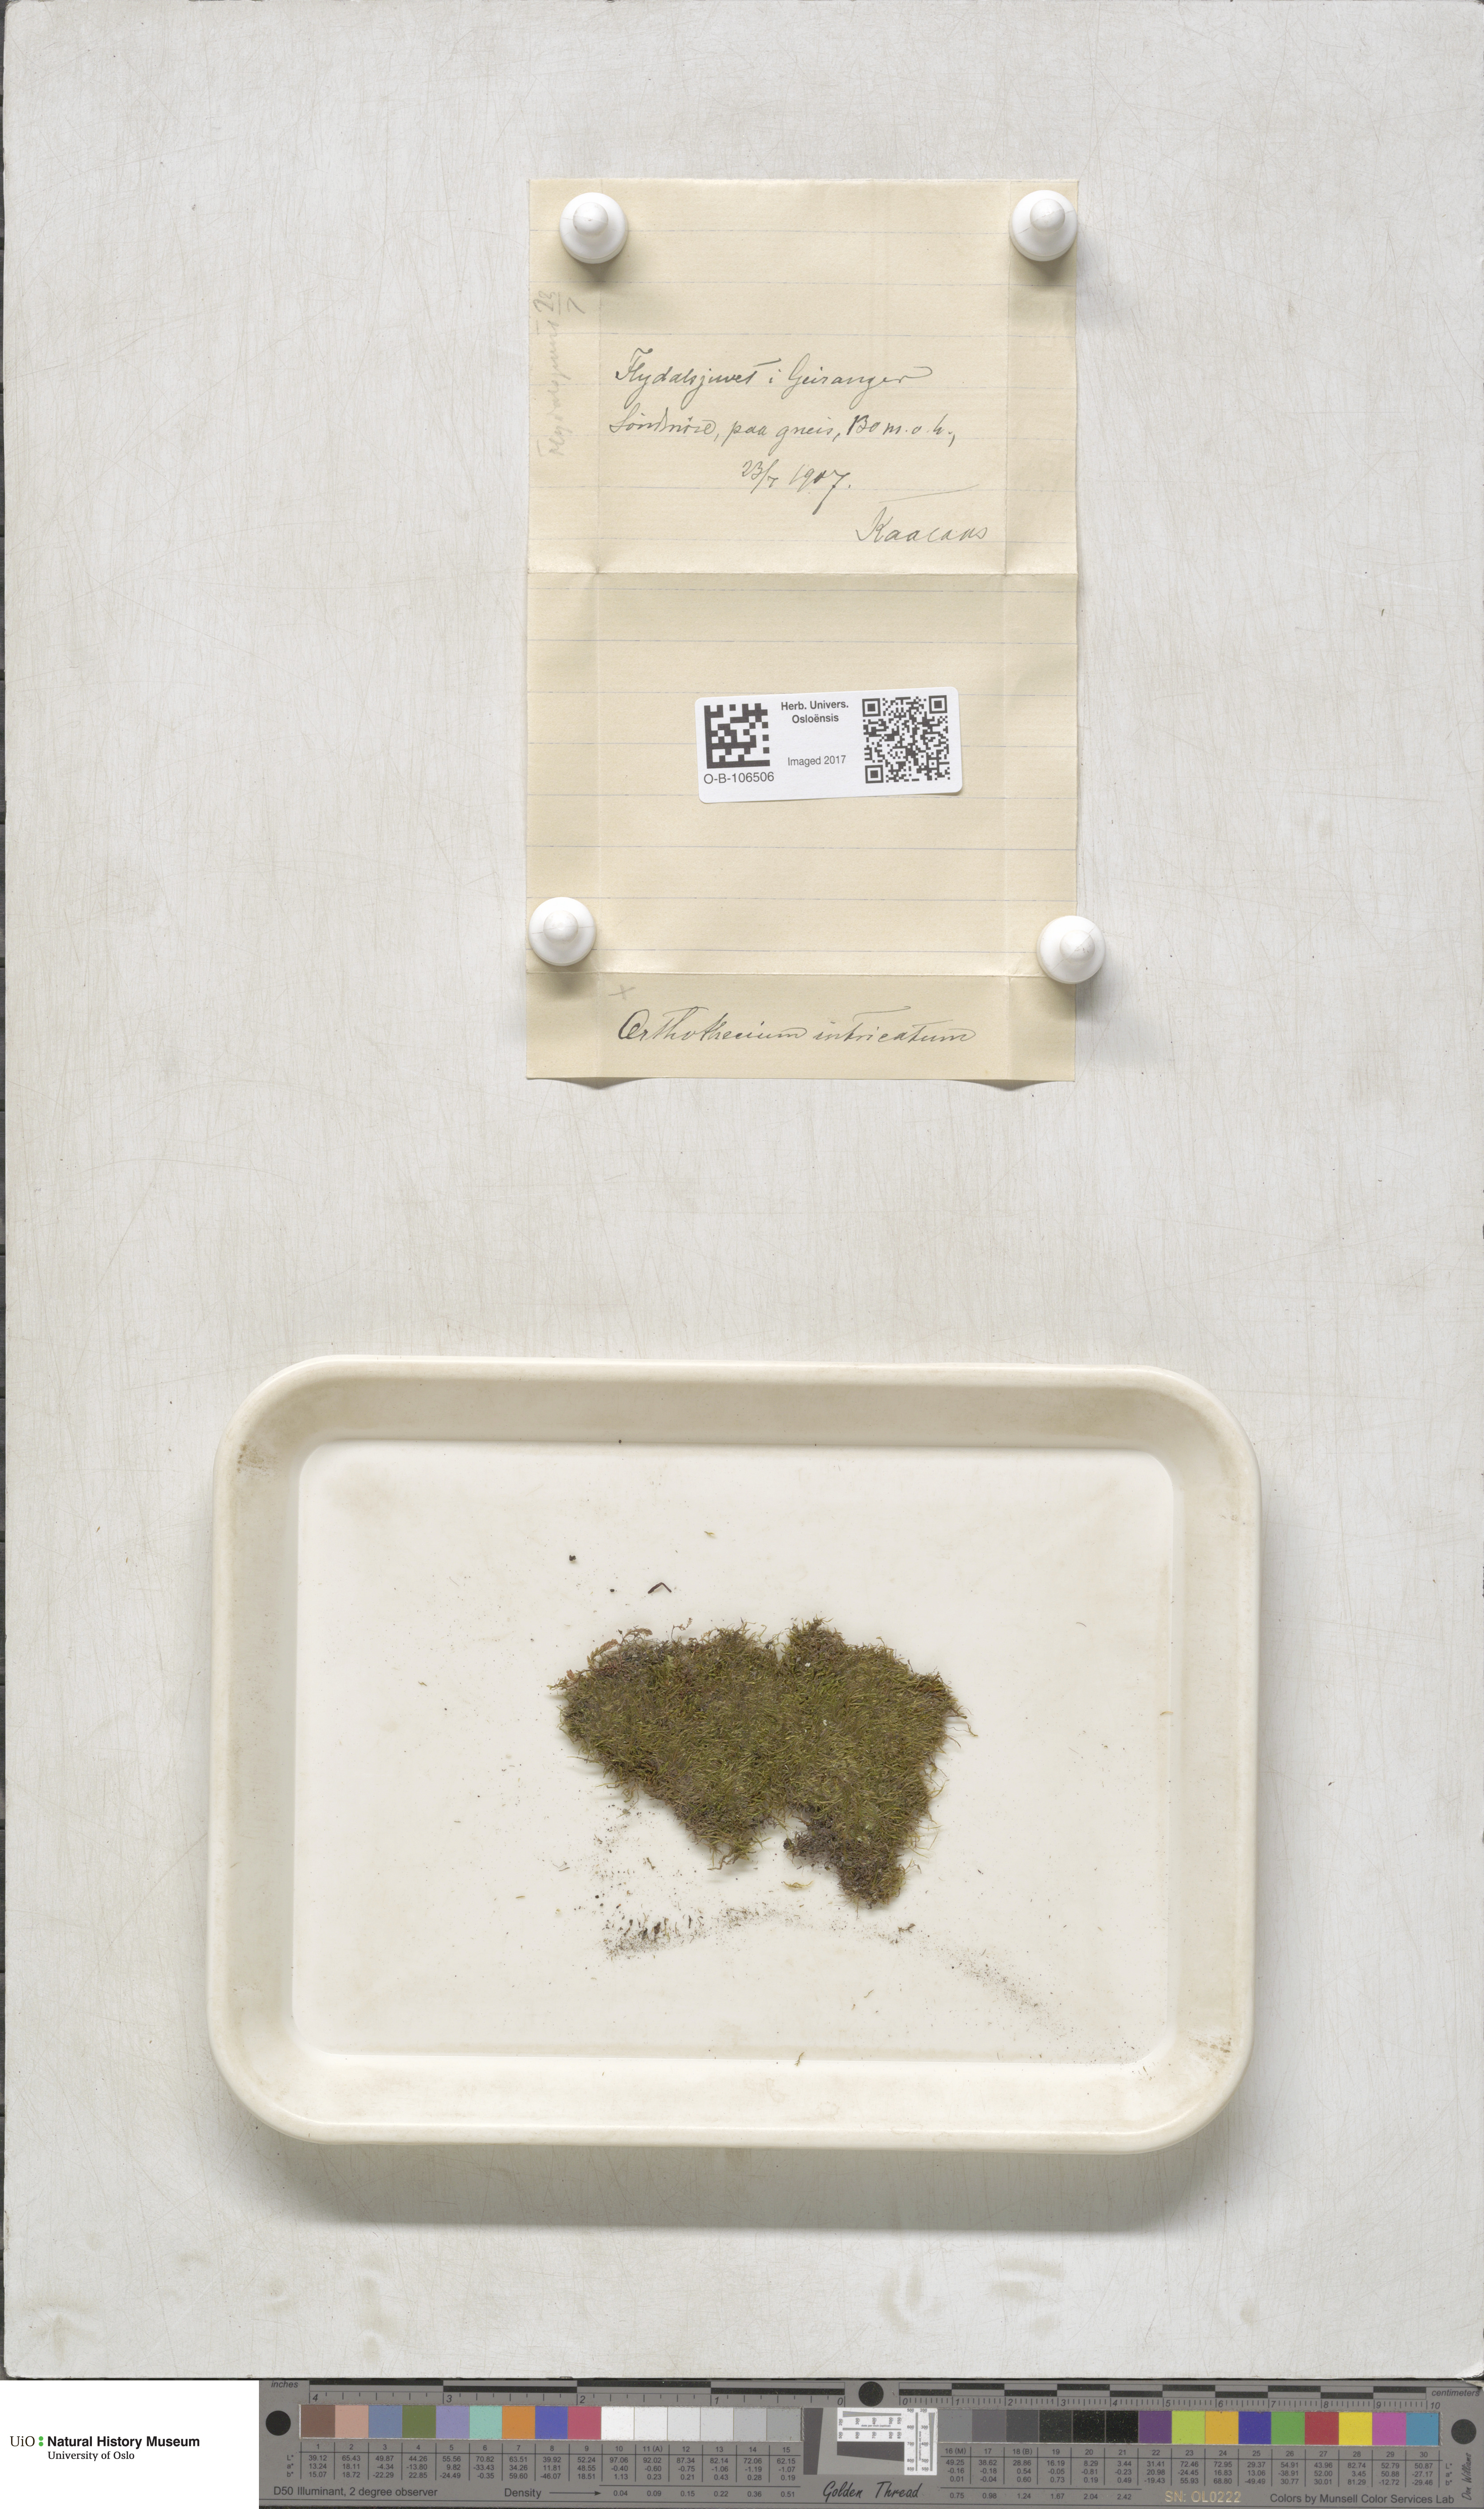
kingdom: Plantae
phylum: Bryophyta
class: Bryopsida
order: Hypnales
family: Plagiotheciaceae
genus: Orthothecium
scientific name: Orthothecium intricatum
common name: Fine-leaved erect-capsule moss
